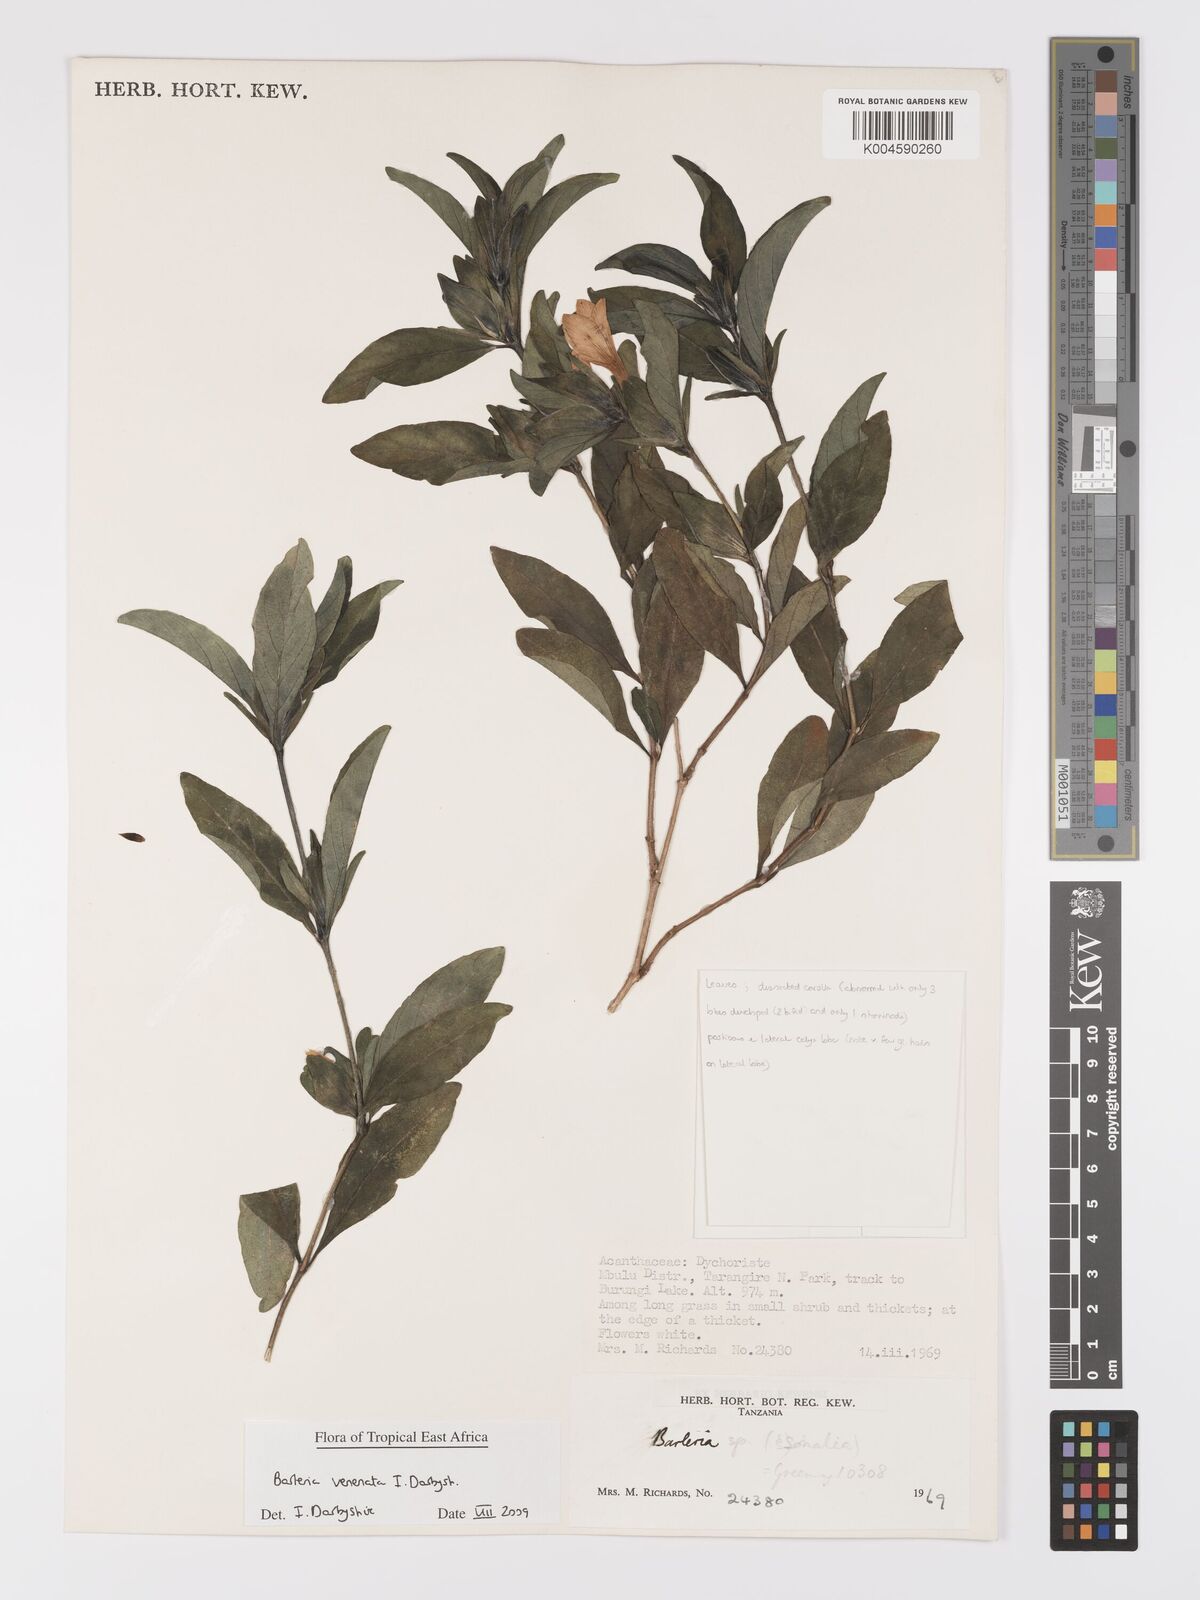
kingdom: Plantae
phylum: Tracheophyta
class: Magnoliopsida
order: Lamiales
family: Acanthaceae
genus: Barleria
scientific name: Barleria venenata
